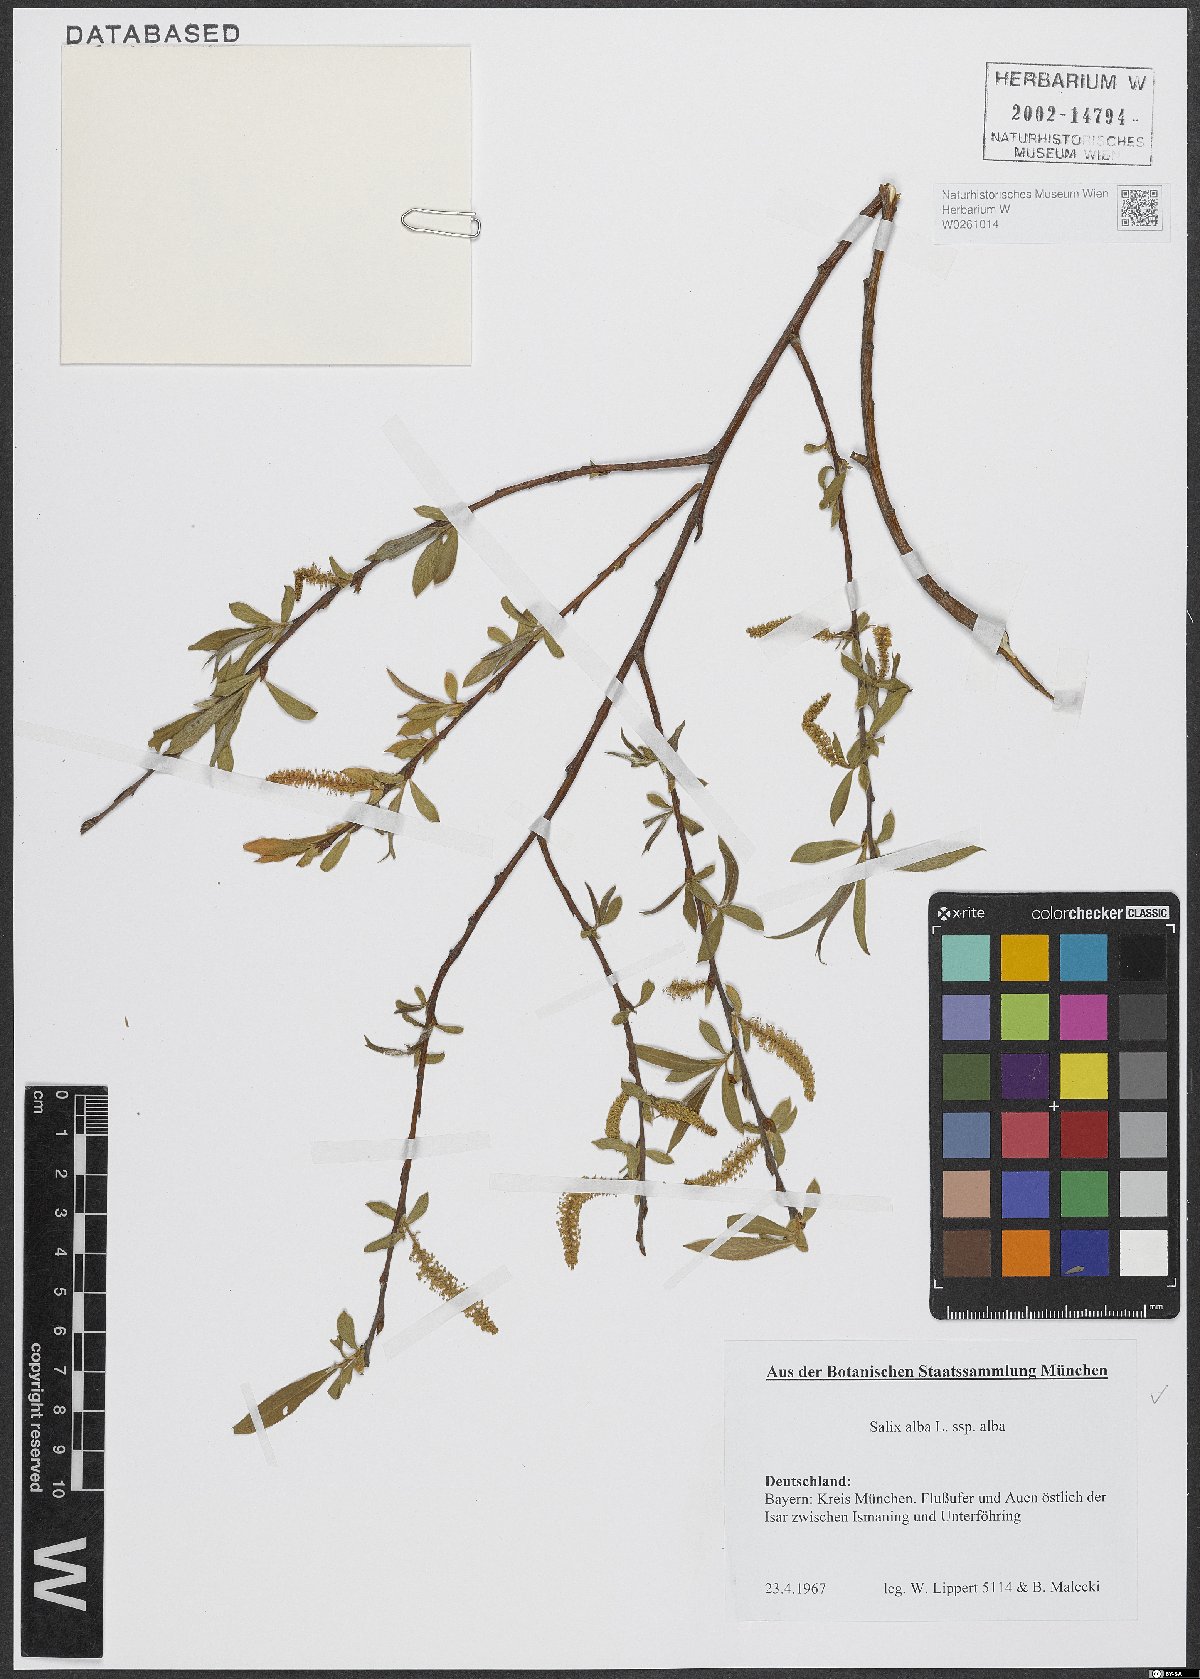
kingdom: Plantae
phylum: Tracheophyta
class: Magnoliopsida
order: Malpighiales
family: Salicaceae
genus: Salix
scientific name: Salix alba
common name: White willow
